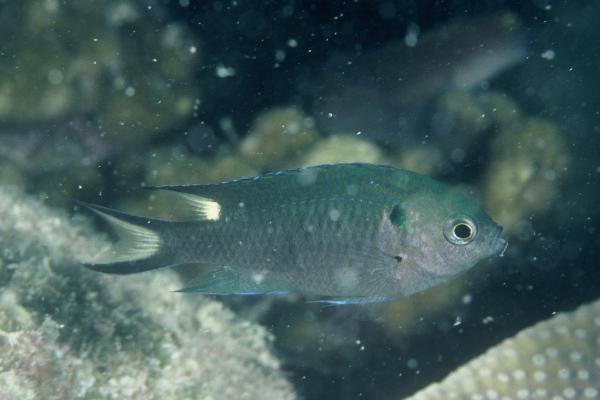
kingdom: Animalia
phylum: Chordata
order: Perciformes
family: Pomacentridae
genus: Neopomacentrus
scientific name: Neopomacentrus cyanomos
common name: Regal demoiselle
